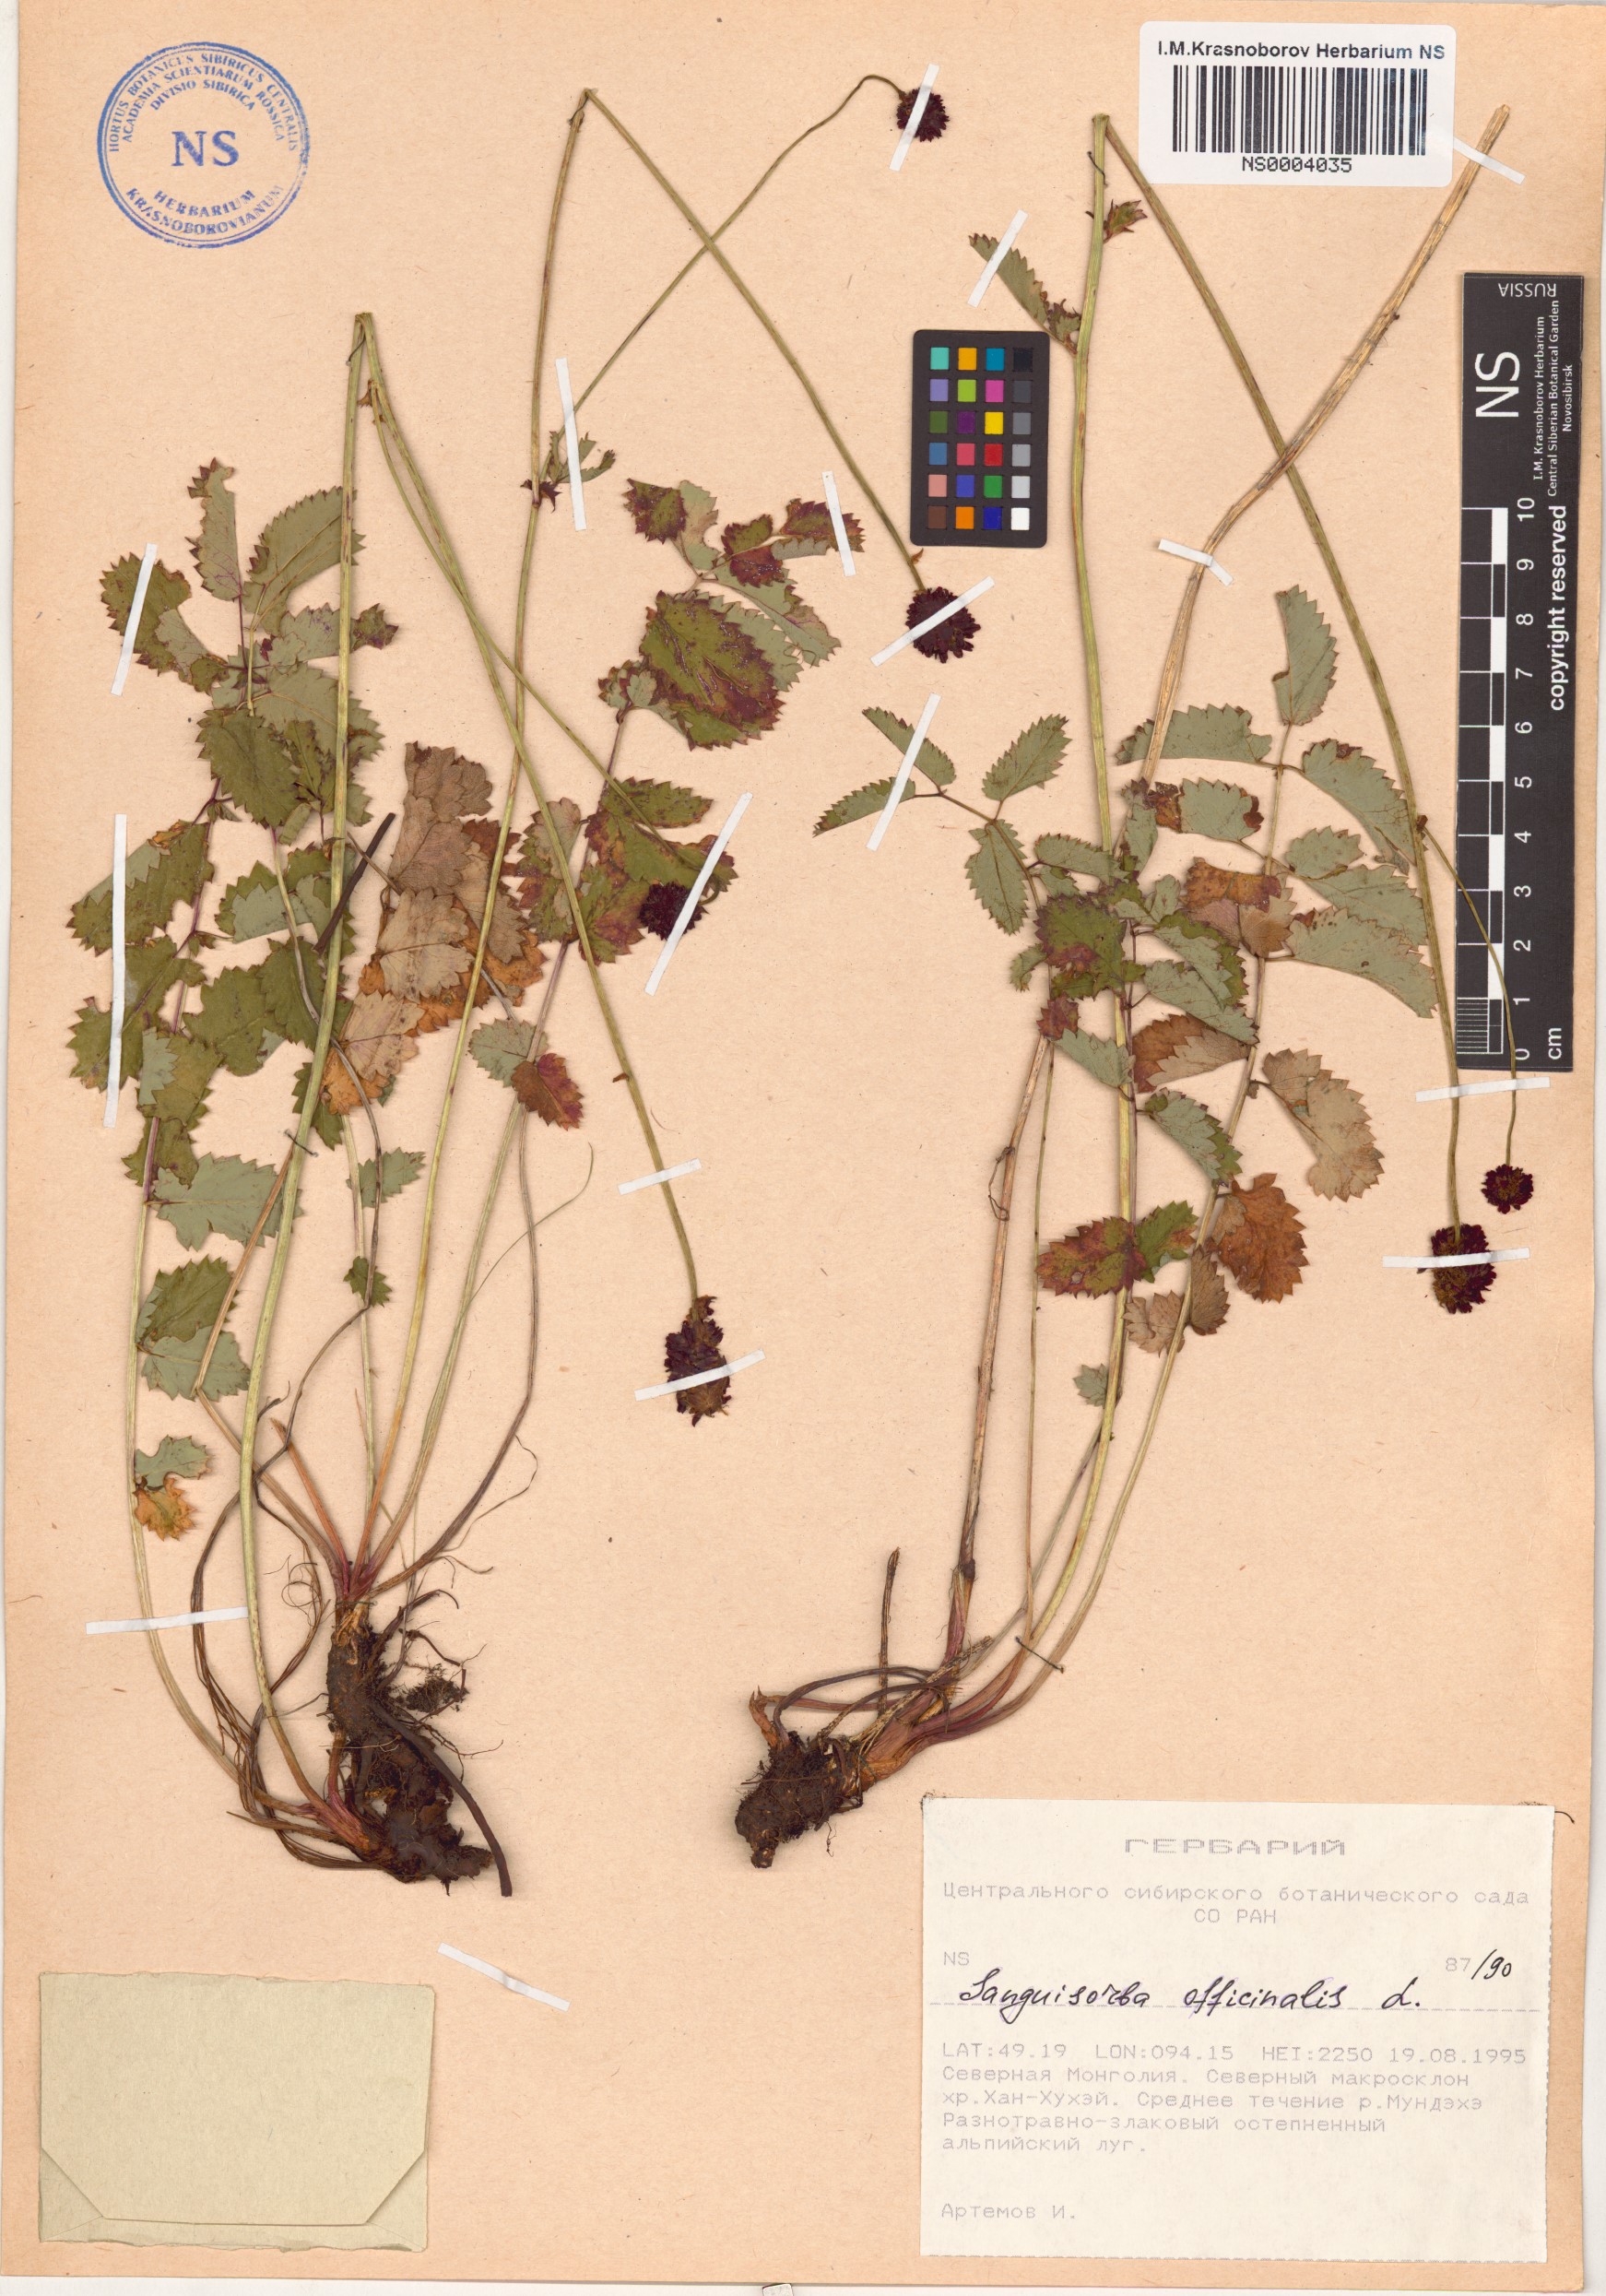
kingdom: Plantae
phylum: Tracheophyta
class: Magnoliopsida
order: Rosales
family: Rosaceae
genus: Sanguisorba
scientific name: Sanguisorba officinalis
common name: Great burnet
